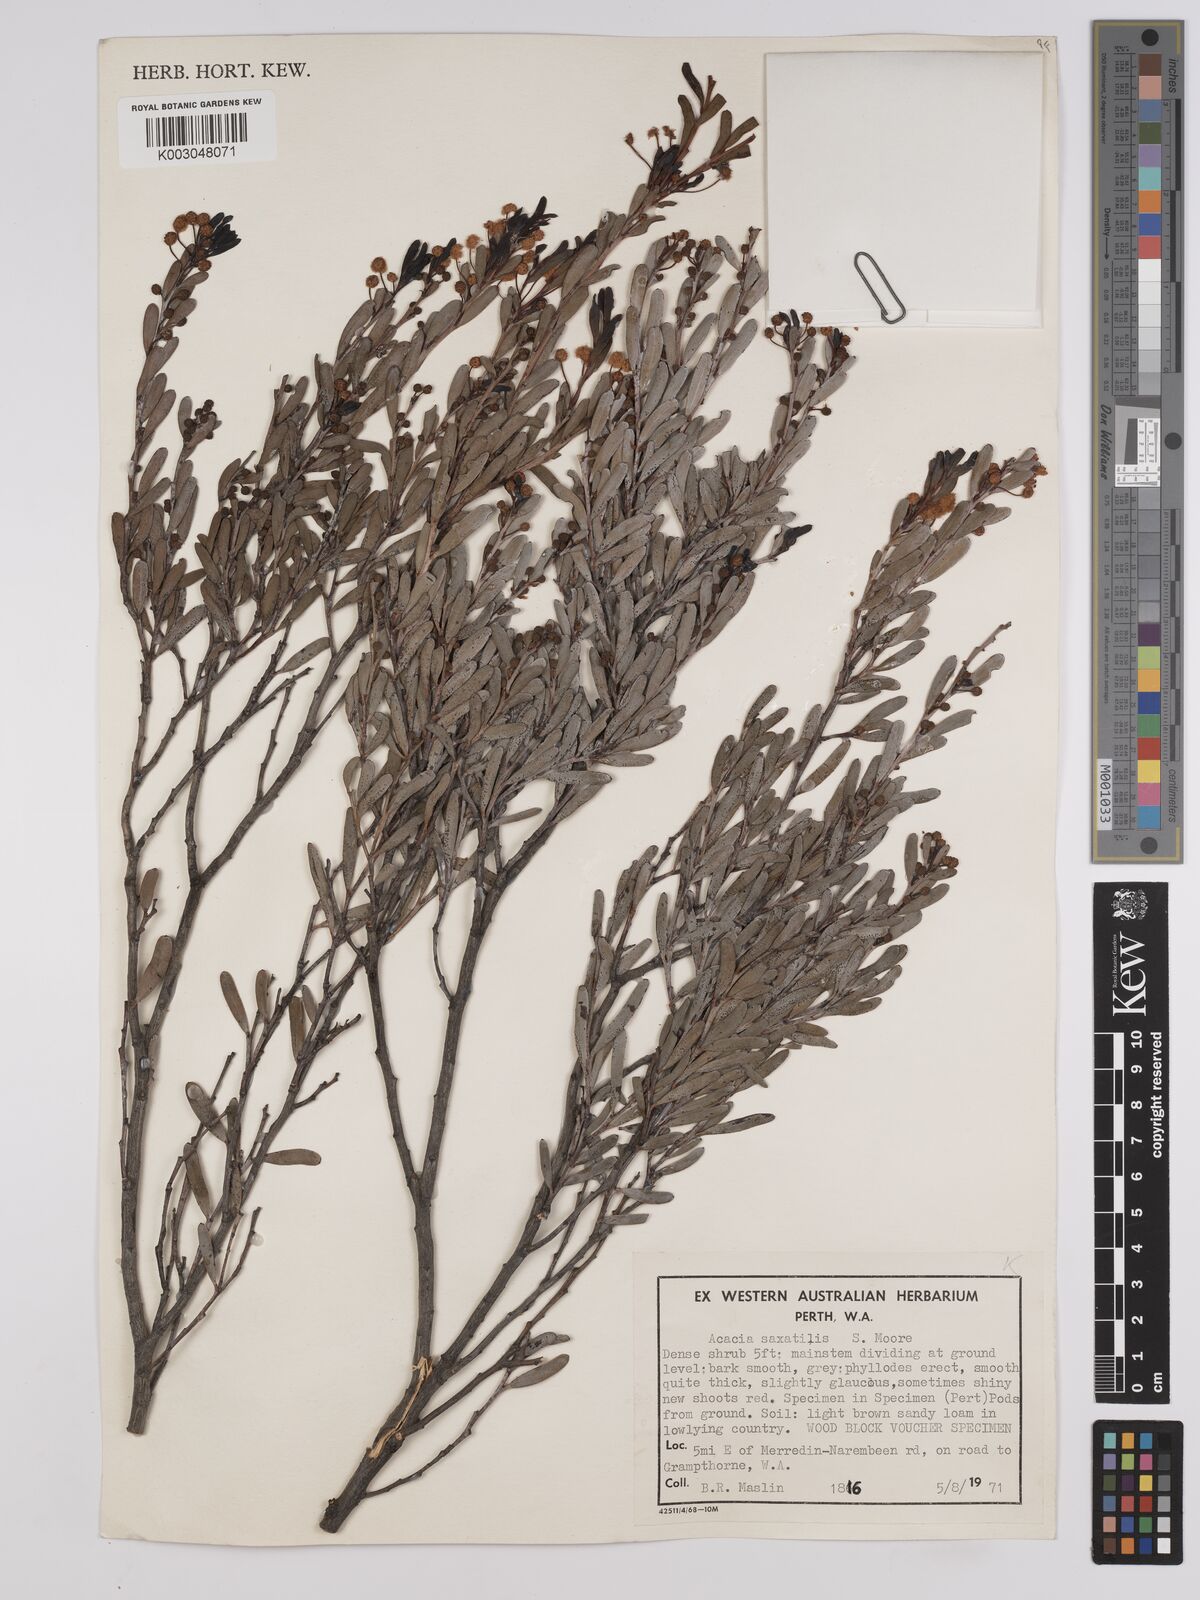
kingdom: Plantae
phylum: Tracheophyta
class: Magnoliopsida
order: Fabales
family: Fabaceae
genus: Acacia
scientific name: Acacia saxatilis
